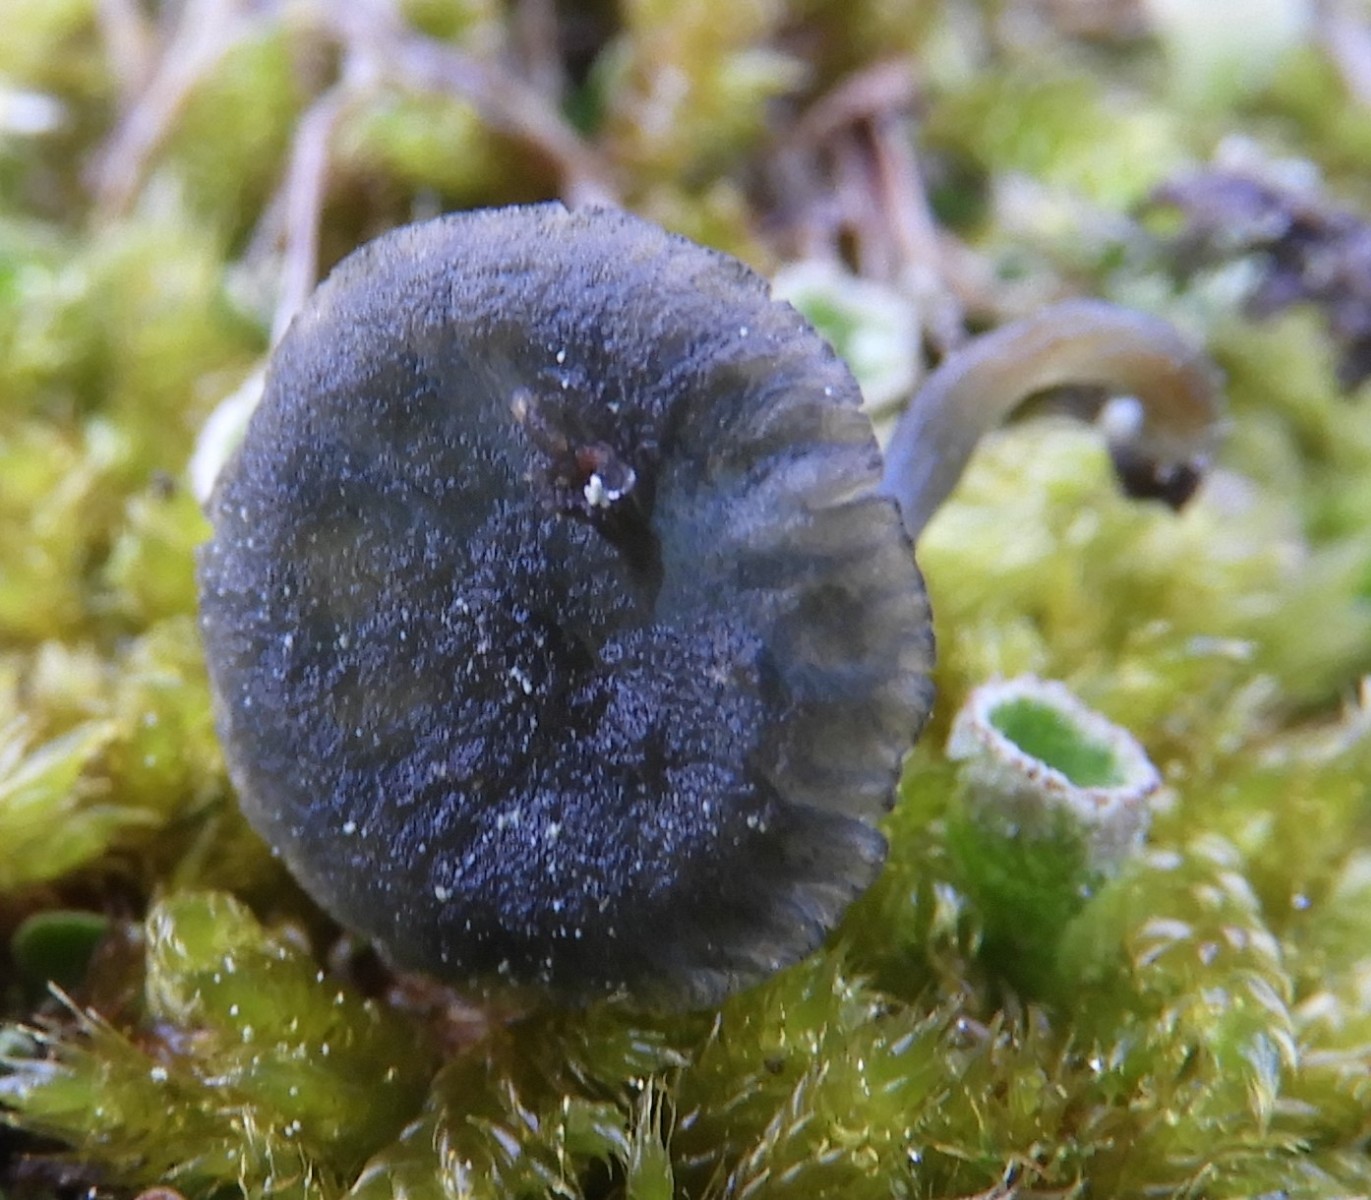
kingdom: Fungi
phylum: Basidiomycota
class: Agaricomycetes
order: Agaricales
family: Hygrophoraceae
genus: Arrhenia
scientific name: Arrhenia chlorocyanea
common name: blågrøn fontænehat
